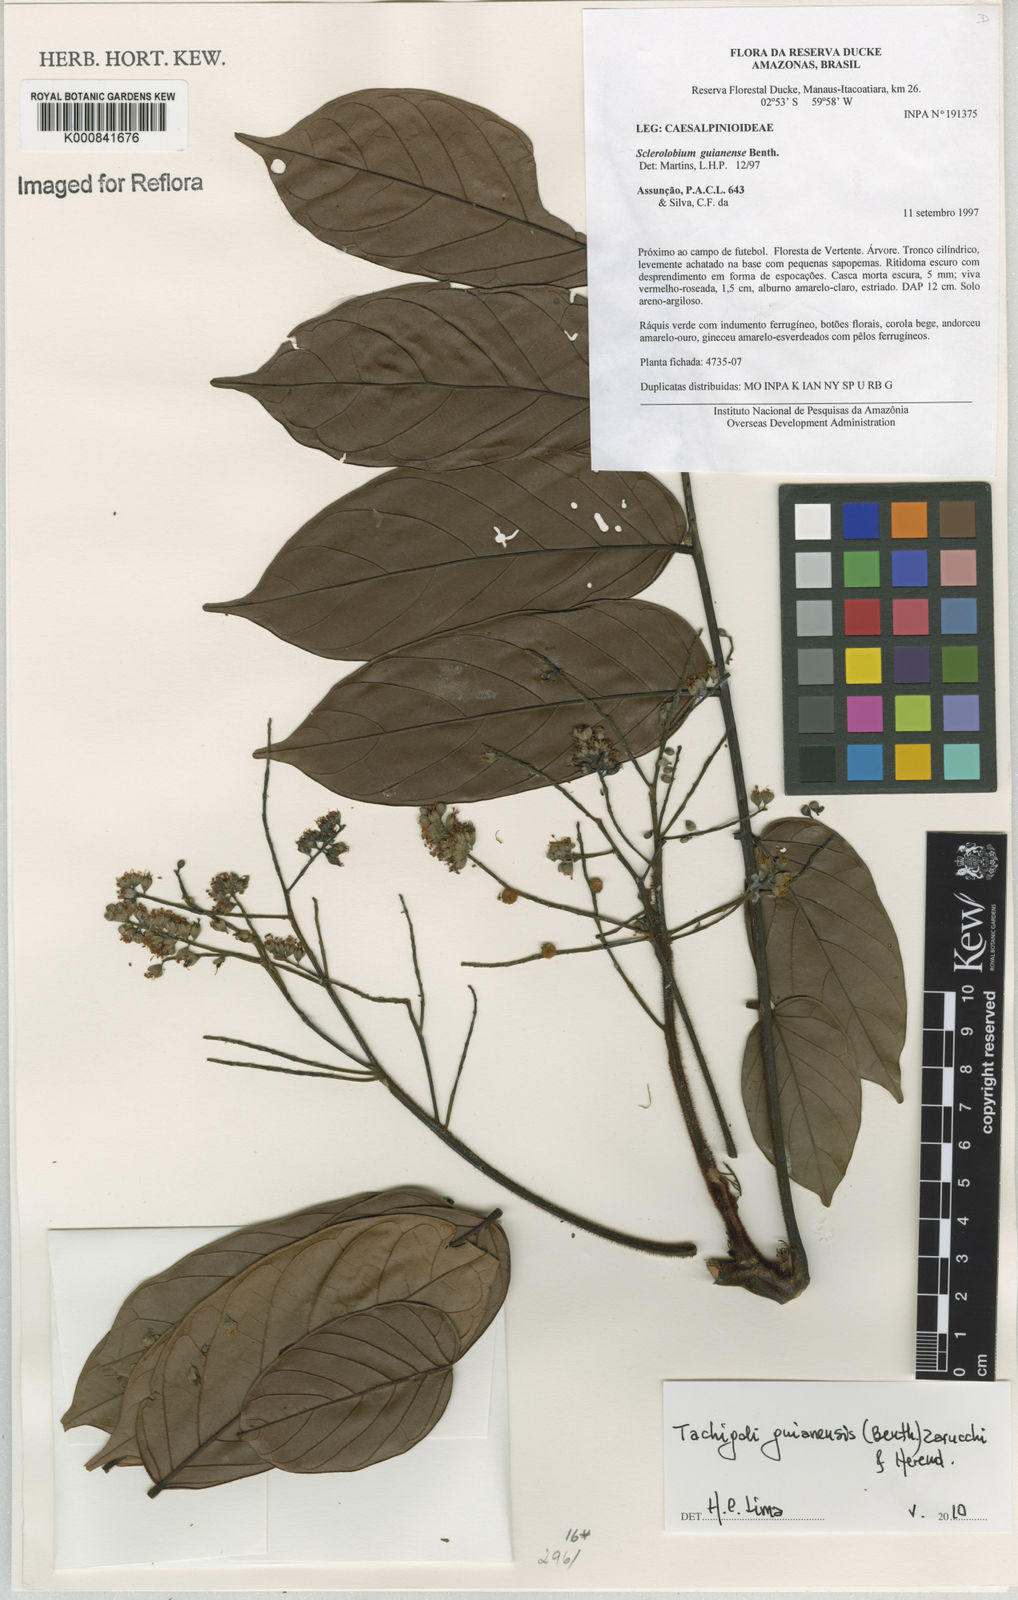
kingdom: Plantae
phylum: Tracheophyta
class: Magnoliopsida
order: Fabales
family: Fabaceae
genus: Tachigali
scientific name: Tachigali guianensis
